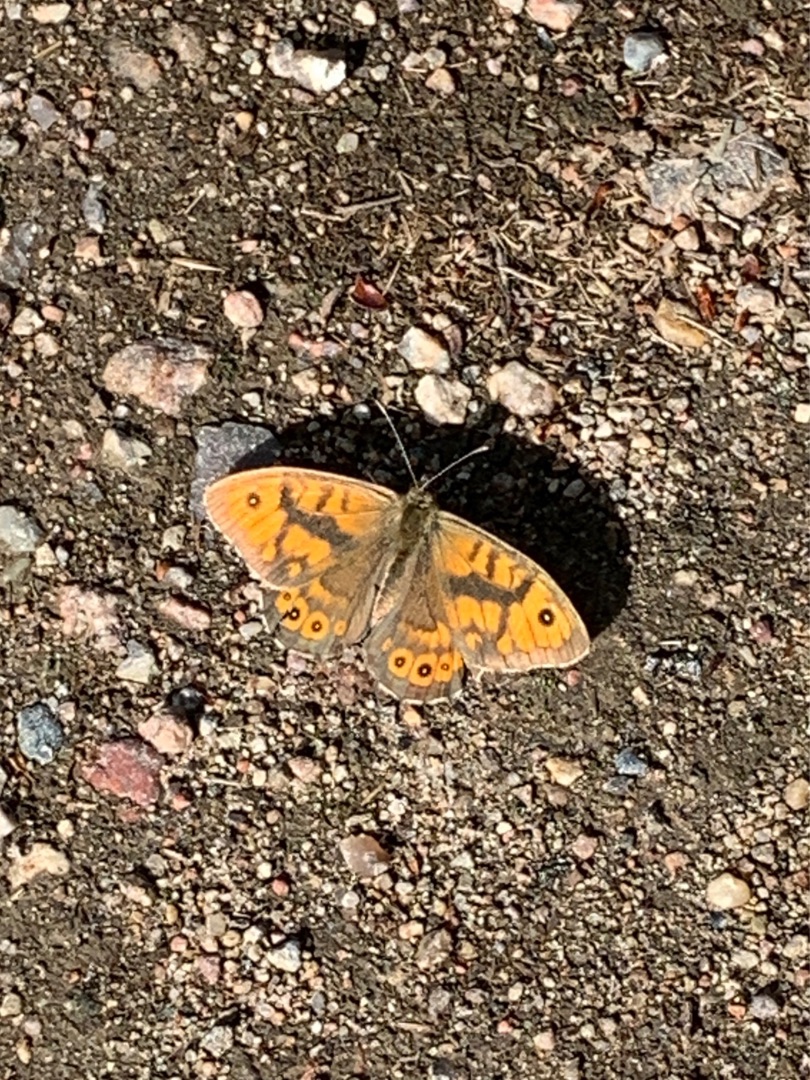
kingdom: Animalia
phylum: Arthropoda
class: Insecta
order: Lepidoptera
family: Nymphalidae
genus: Pararge
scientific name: Pararge Lasiommata megera
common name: Vejrandøje
